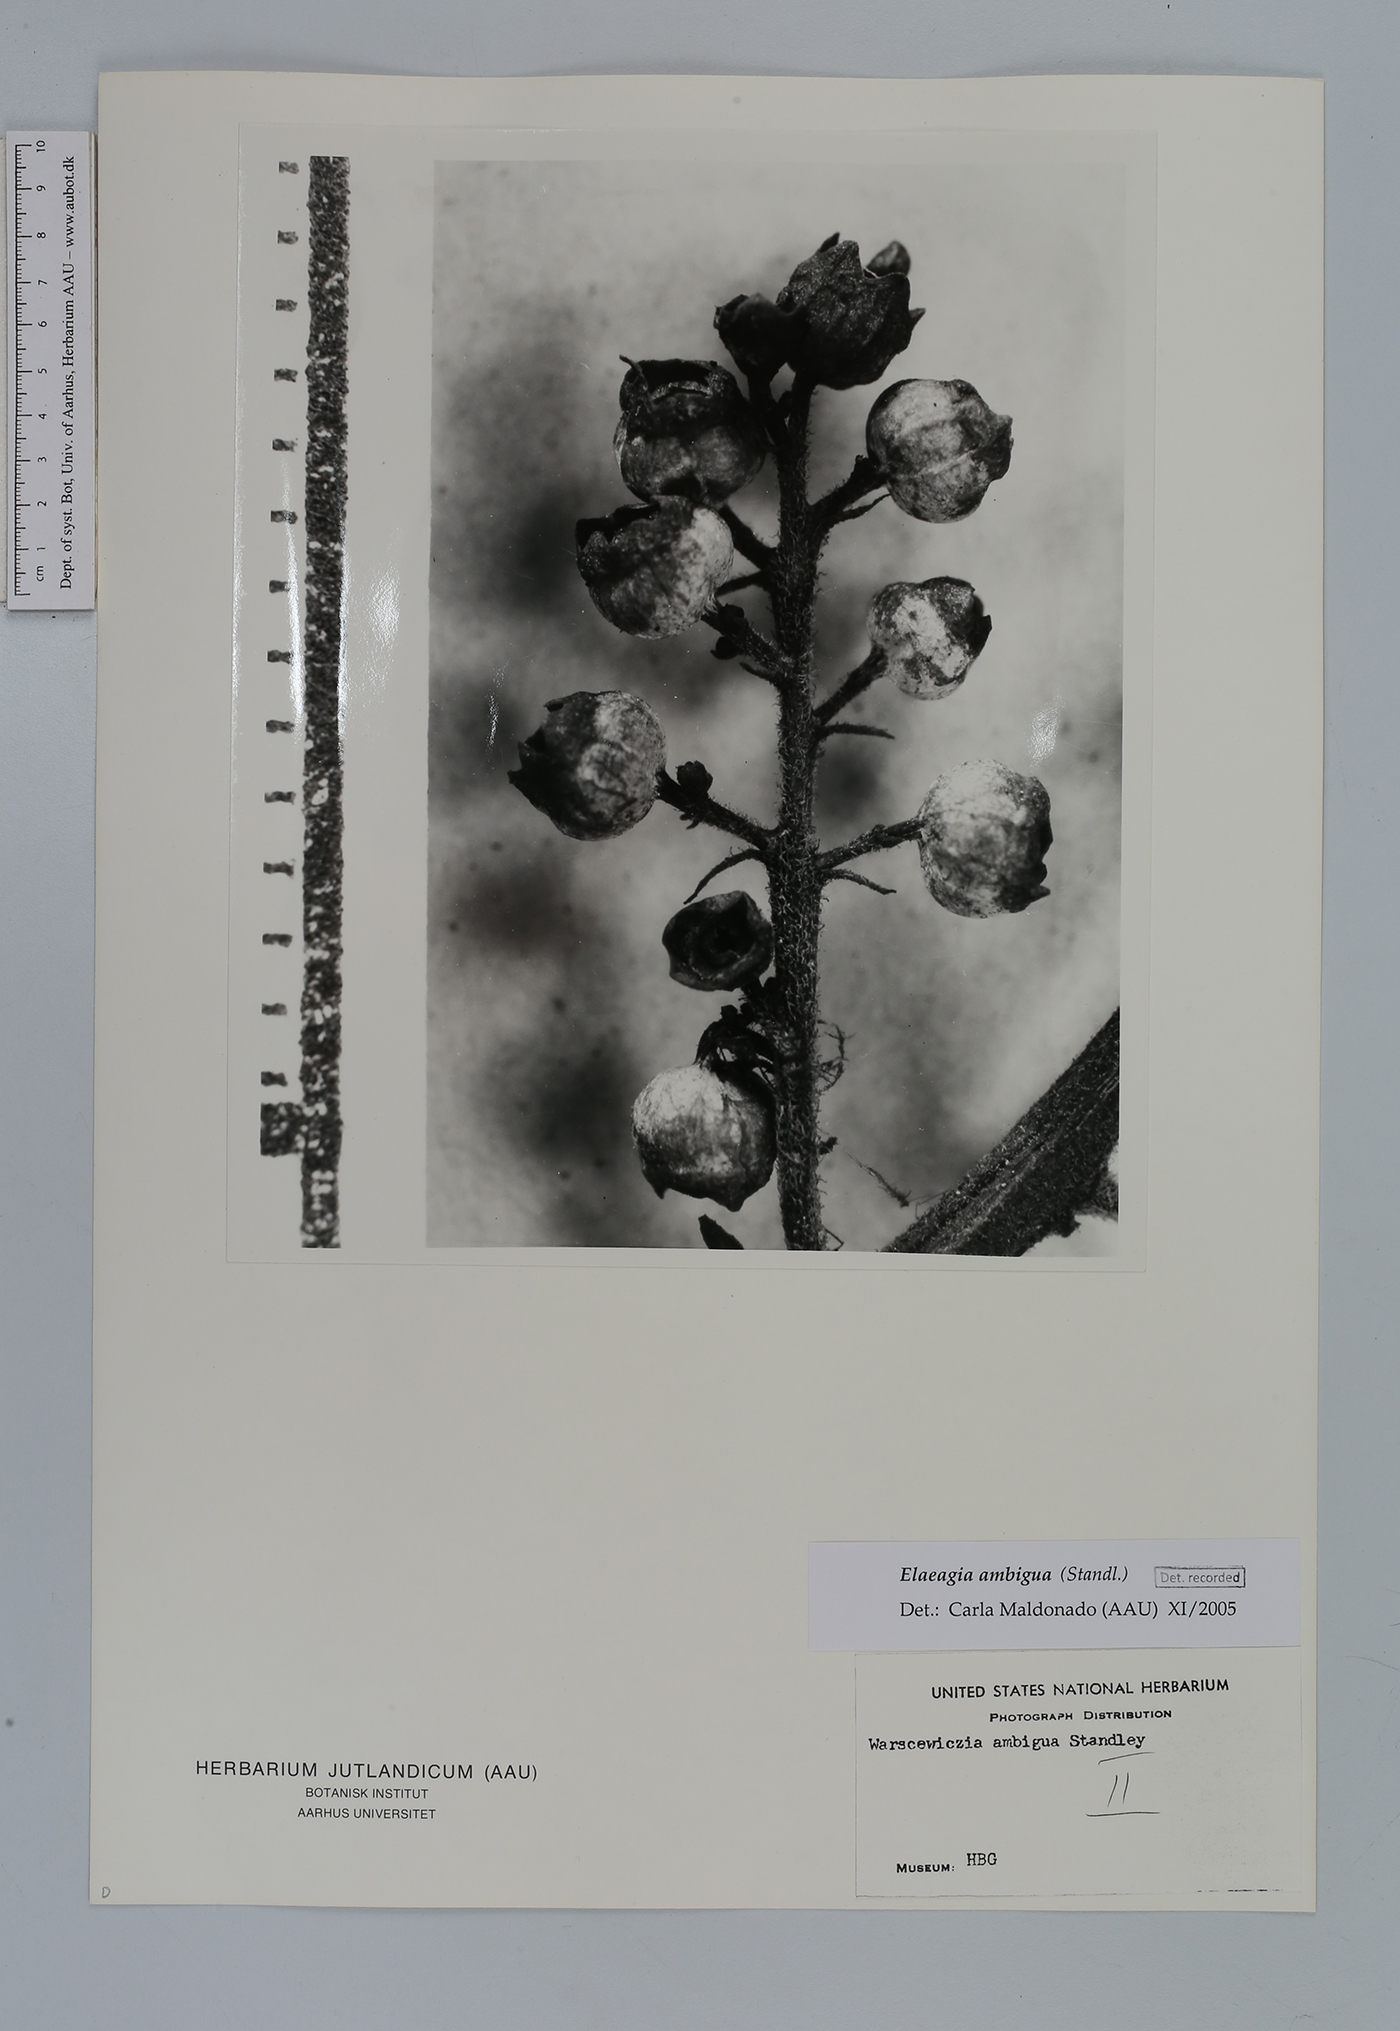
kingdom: Plantae
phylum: Tracheophyta
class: Magnoliopsida
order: Gentianales
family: Rubiaceae
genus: Warszewiczia
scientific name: Warszewiczia ambigua
